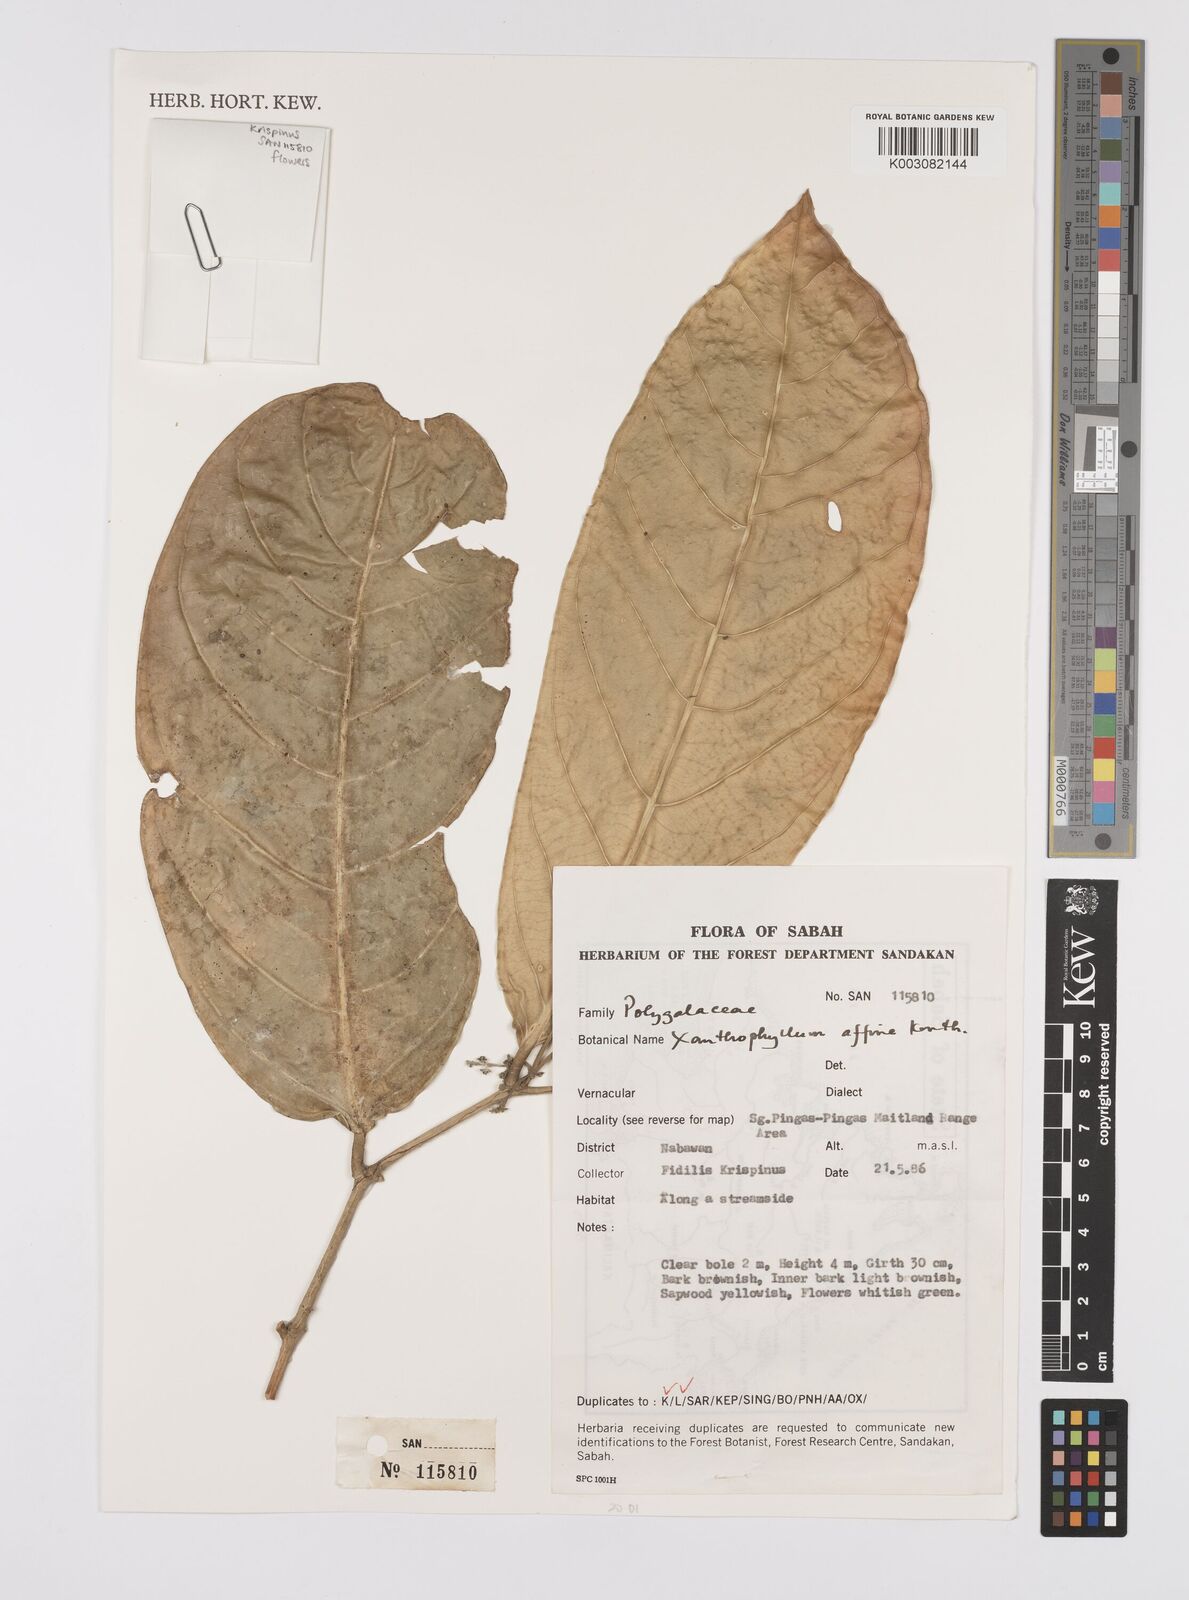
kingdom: Plantae
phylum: Tracheophyta
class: Magnoliopsida
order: Fabales
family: Polygalaceae
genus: Xanthophyllum
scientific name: Xanthophyllum flavescens
